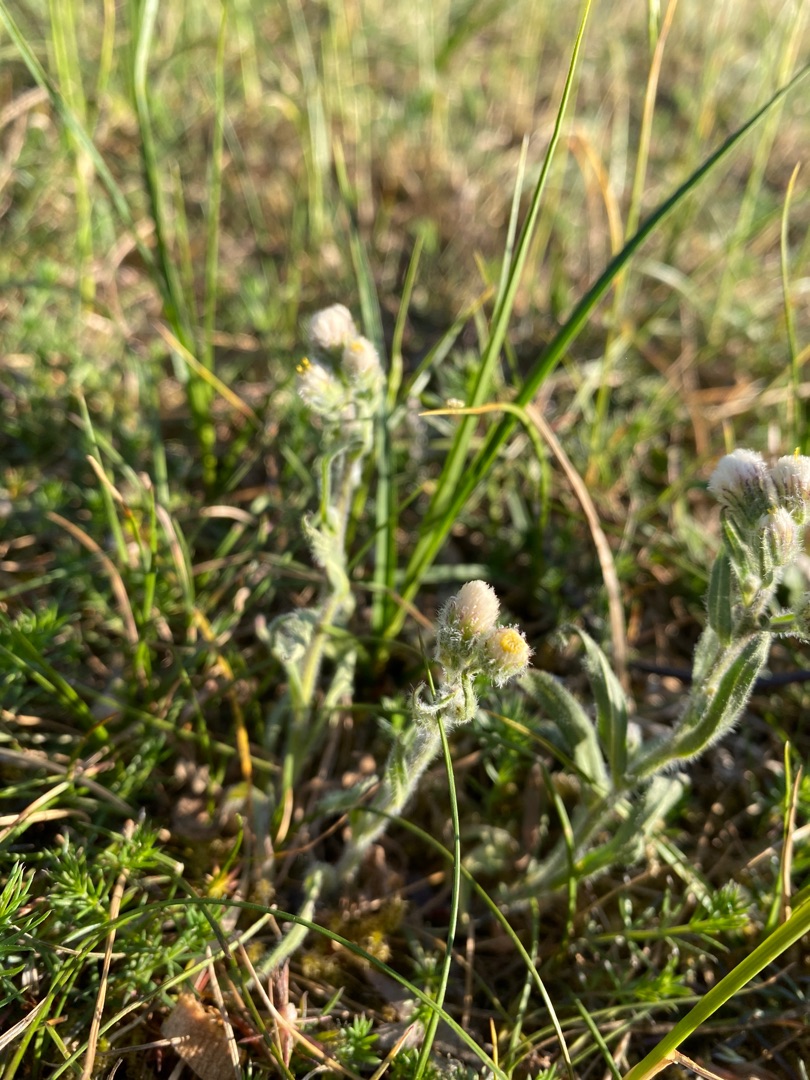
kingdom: Plantae
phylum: Tracheophyta
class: Magnoliopsida
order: Asterales
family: Asteraceae
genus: Erigeron
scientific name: Erigeron acris
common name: Bitter bakkestjerne
